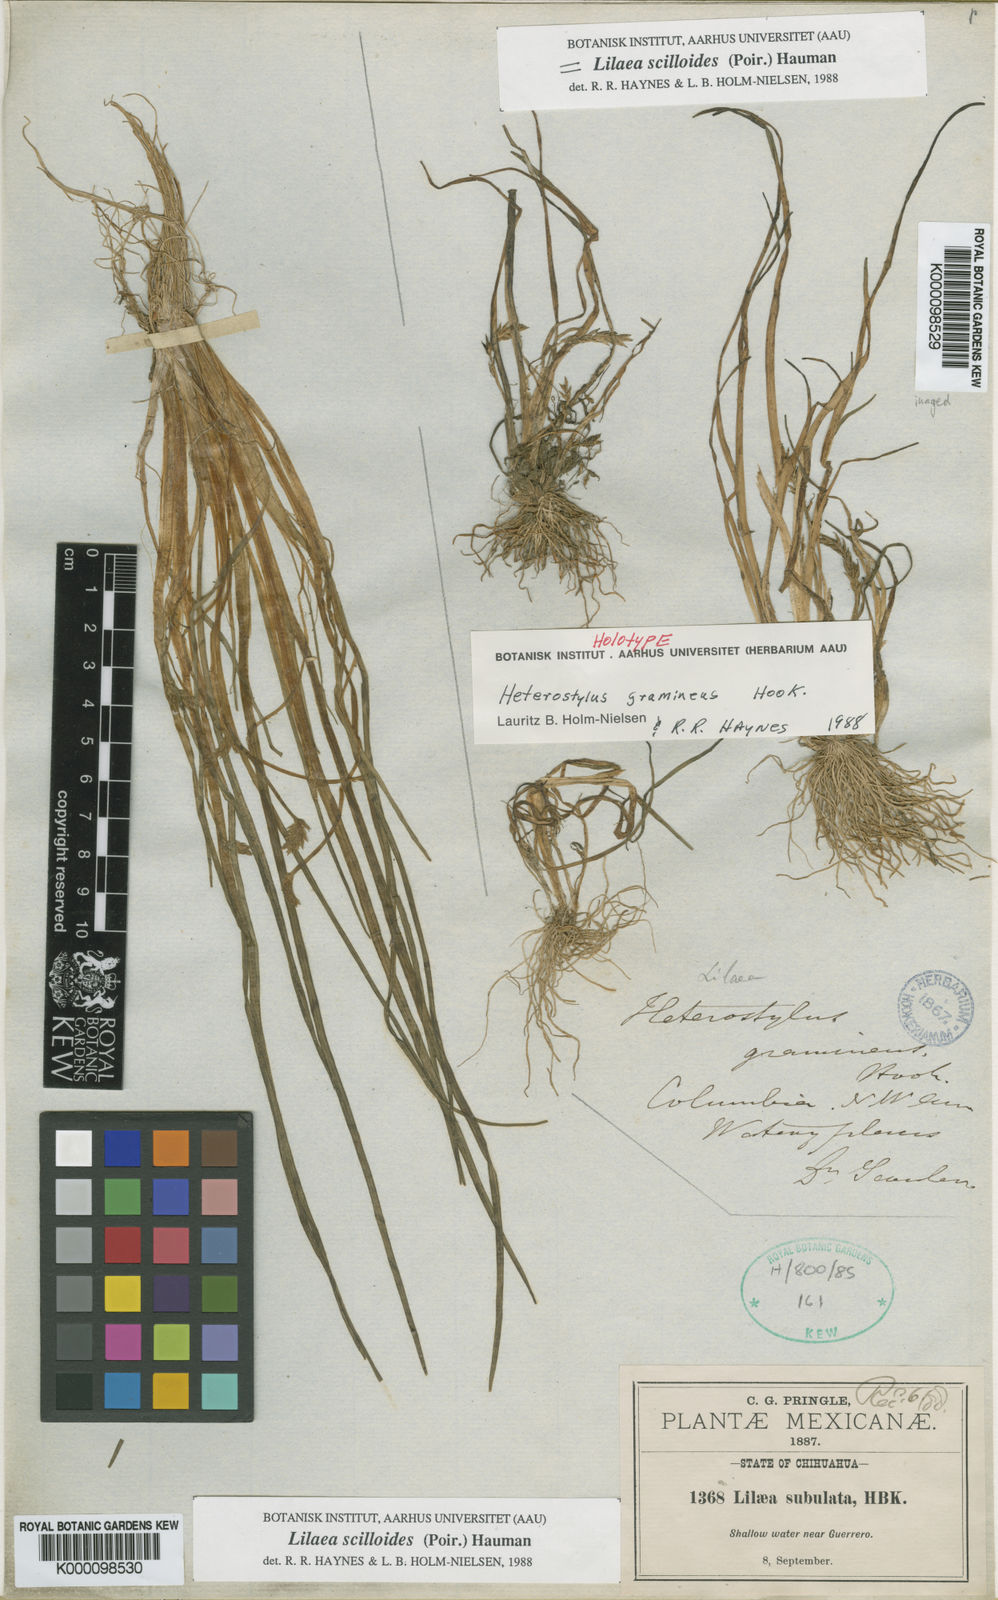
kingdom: Plantae
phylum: Tracheophyta
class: Liliopsida
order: Alismatales
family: Juncaginaceae
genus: Triglochin
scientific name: Triglochin scilloides
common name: Awl-leaved lilaea
